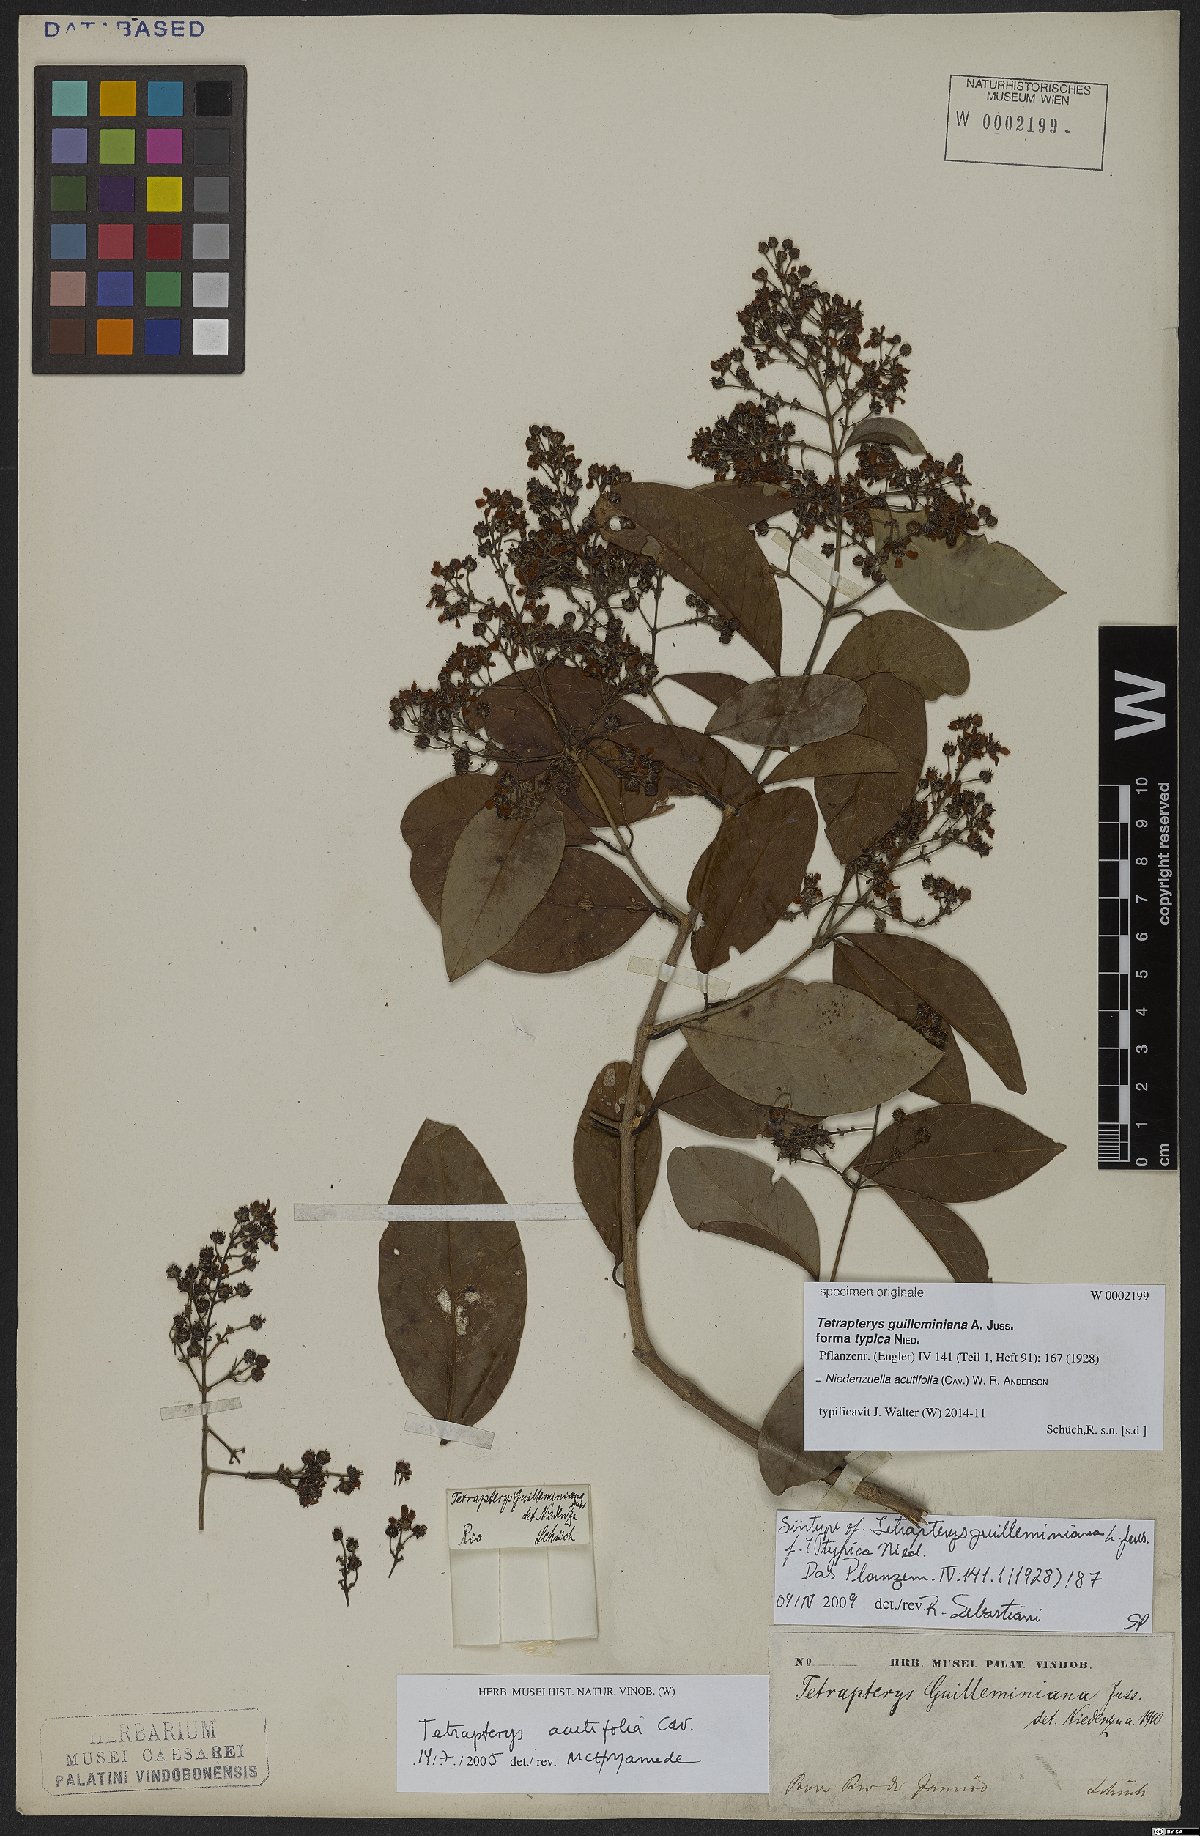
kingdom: Plantae
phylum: Tracheophyta
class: Magnoliopsida
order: Malpighiales
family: Malpighiaceae
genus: Niedenzuella
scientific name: Niedenzuella acutifolia
